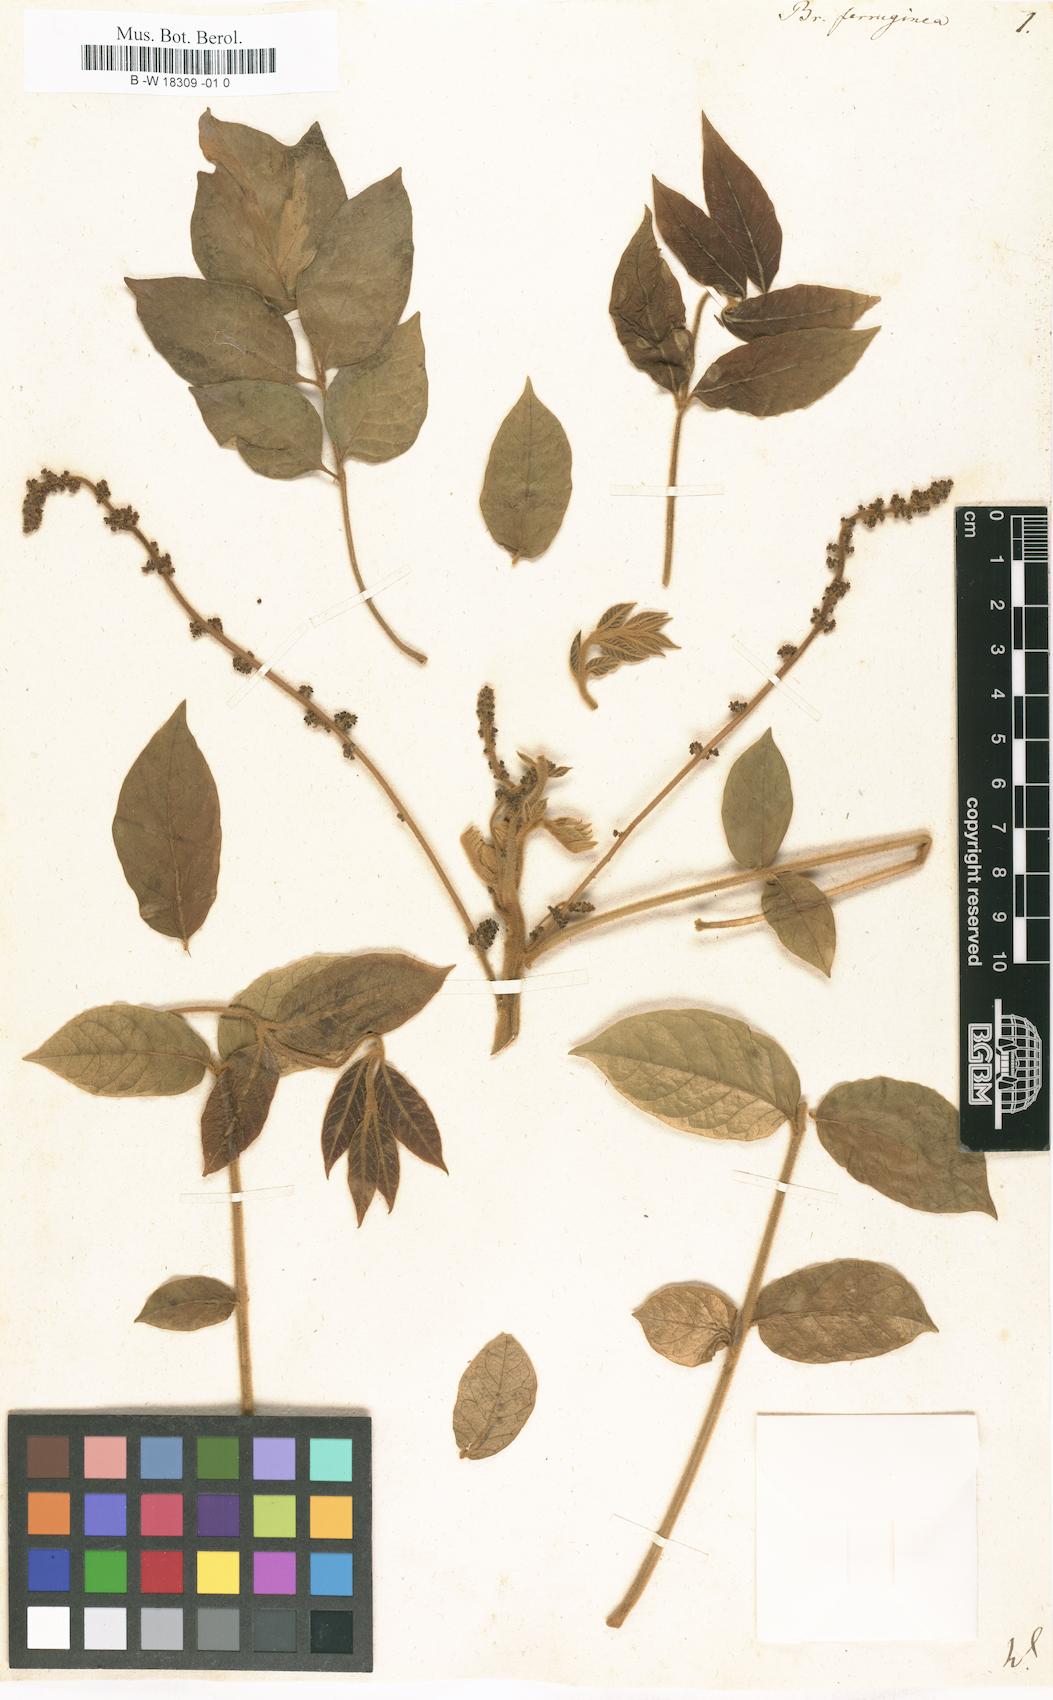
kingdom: Plantae
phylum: Tracheophyta
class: Magnoliopsida
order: Sapindales
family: Simaroubaceae
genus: Brucea
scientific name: Brucea antidysenterica
